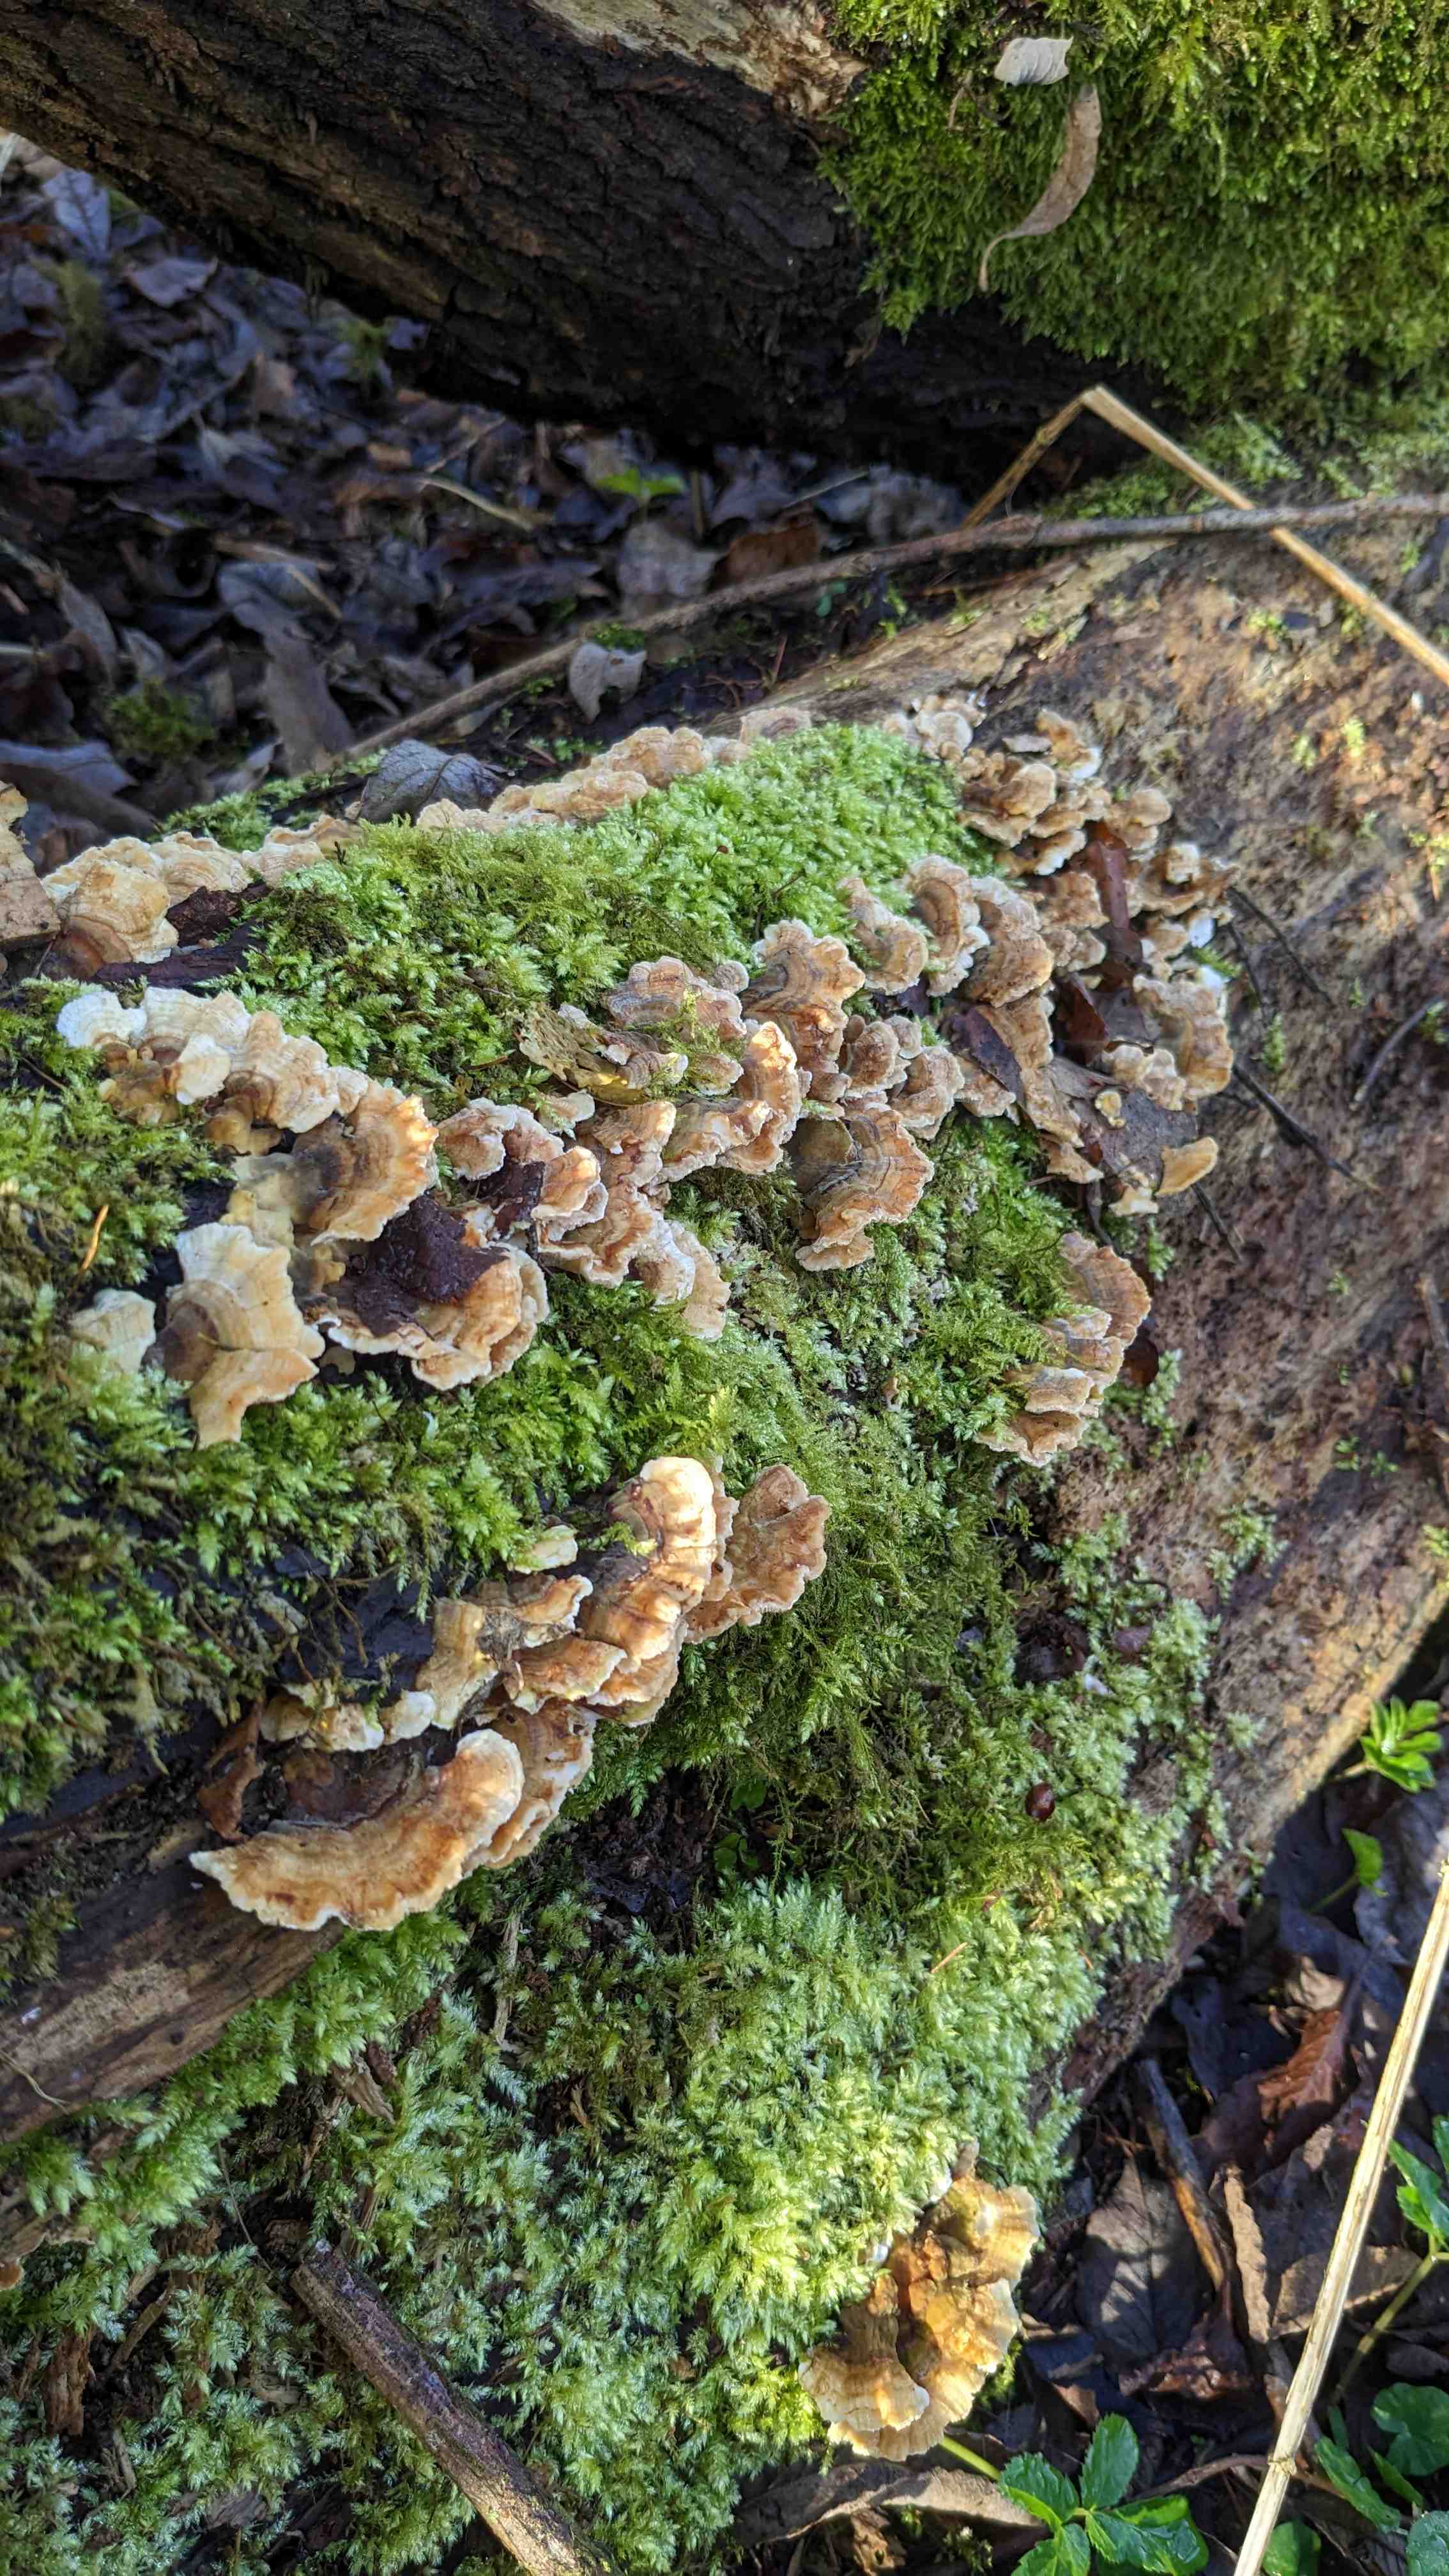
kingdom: Fungi
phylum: Basidiomycota
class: Agaricomycetes
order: Polyporales
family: Polyporaceae
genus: Trametes
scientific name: Trametes versicolor
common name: broget læderporesvamp
